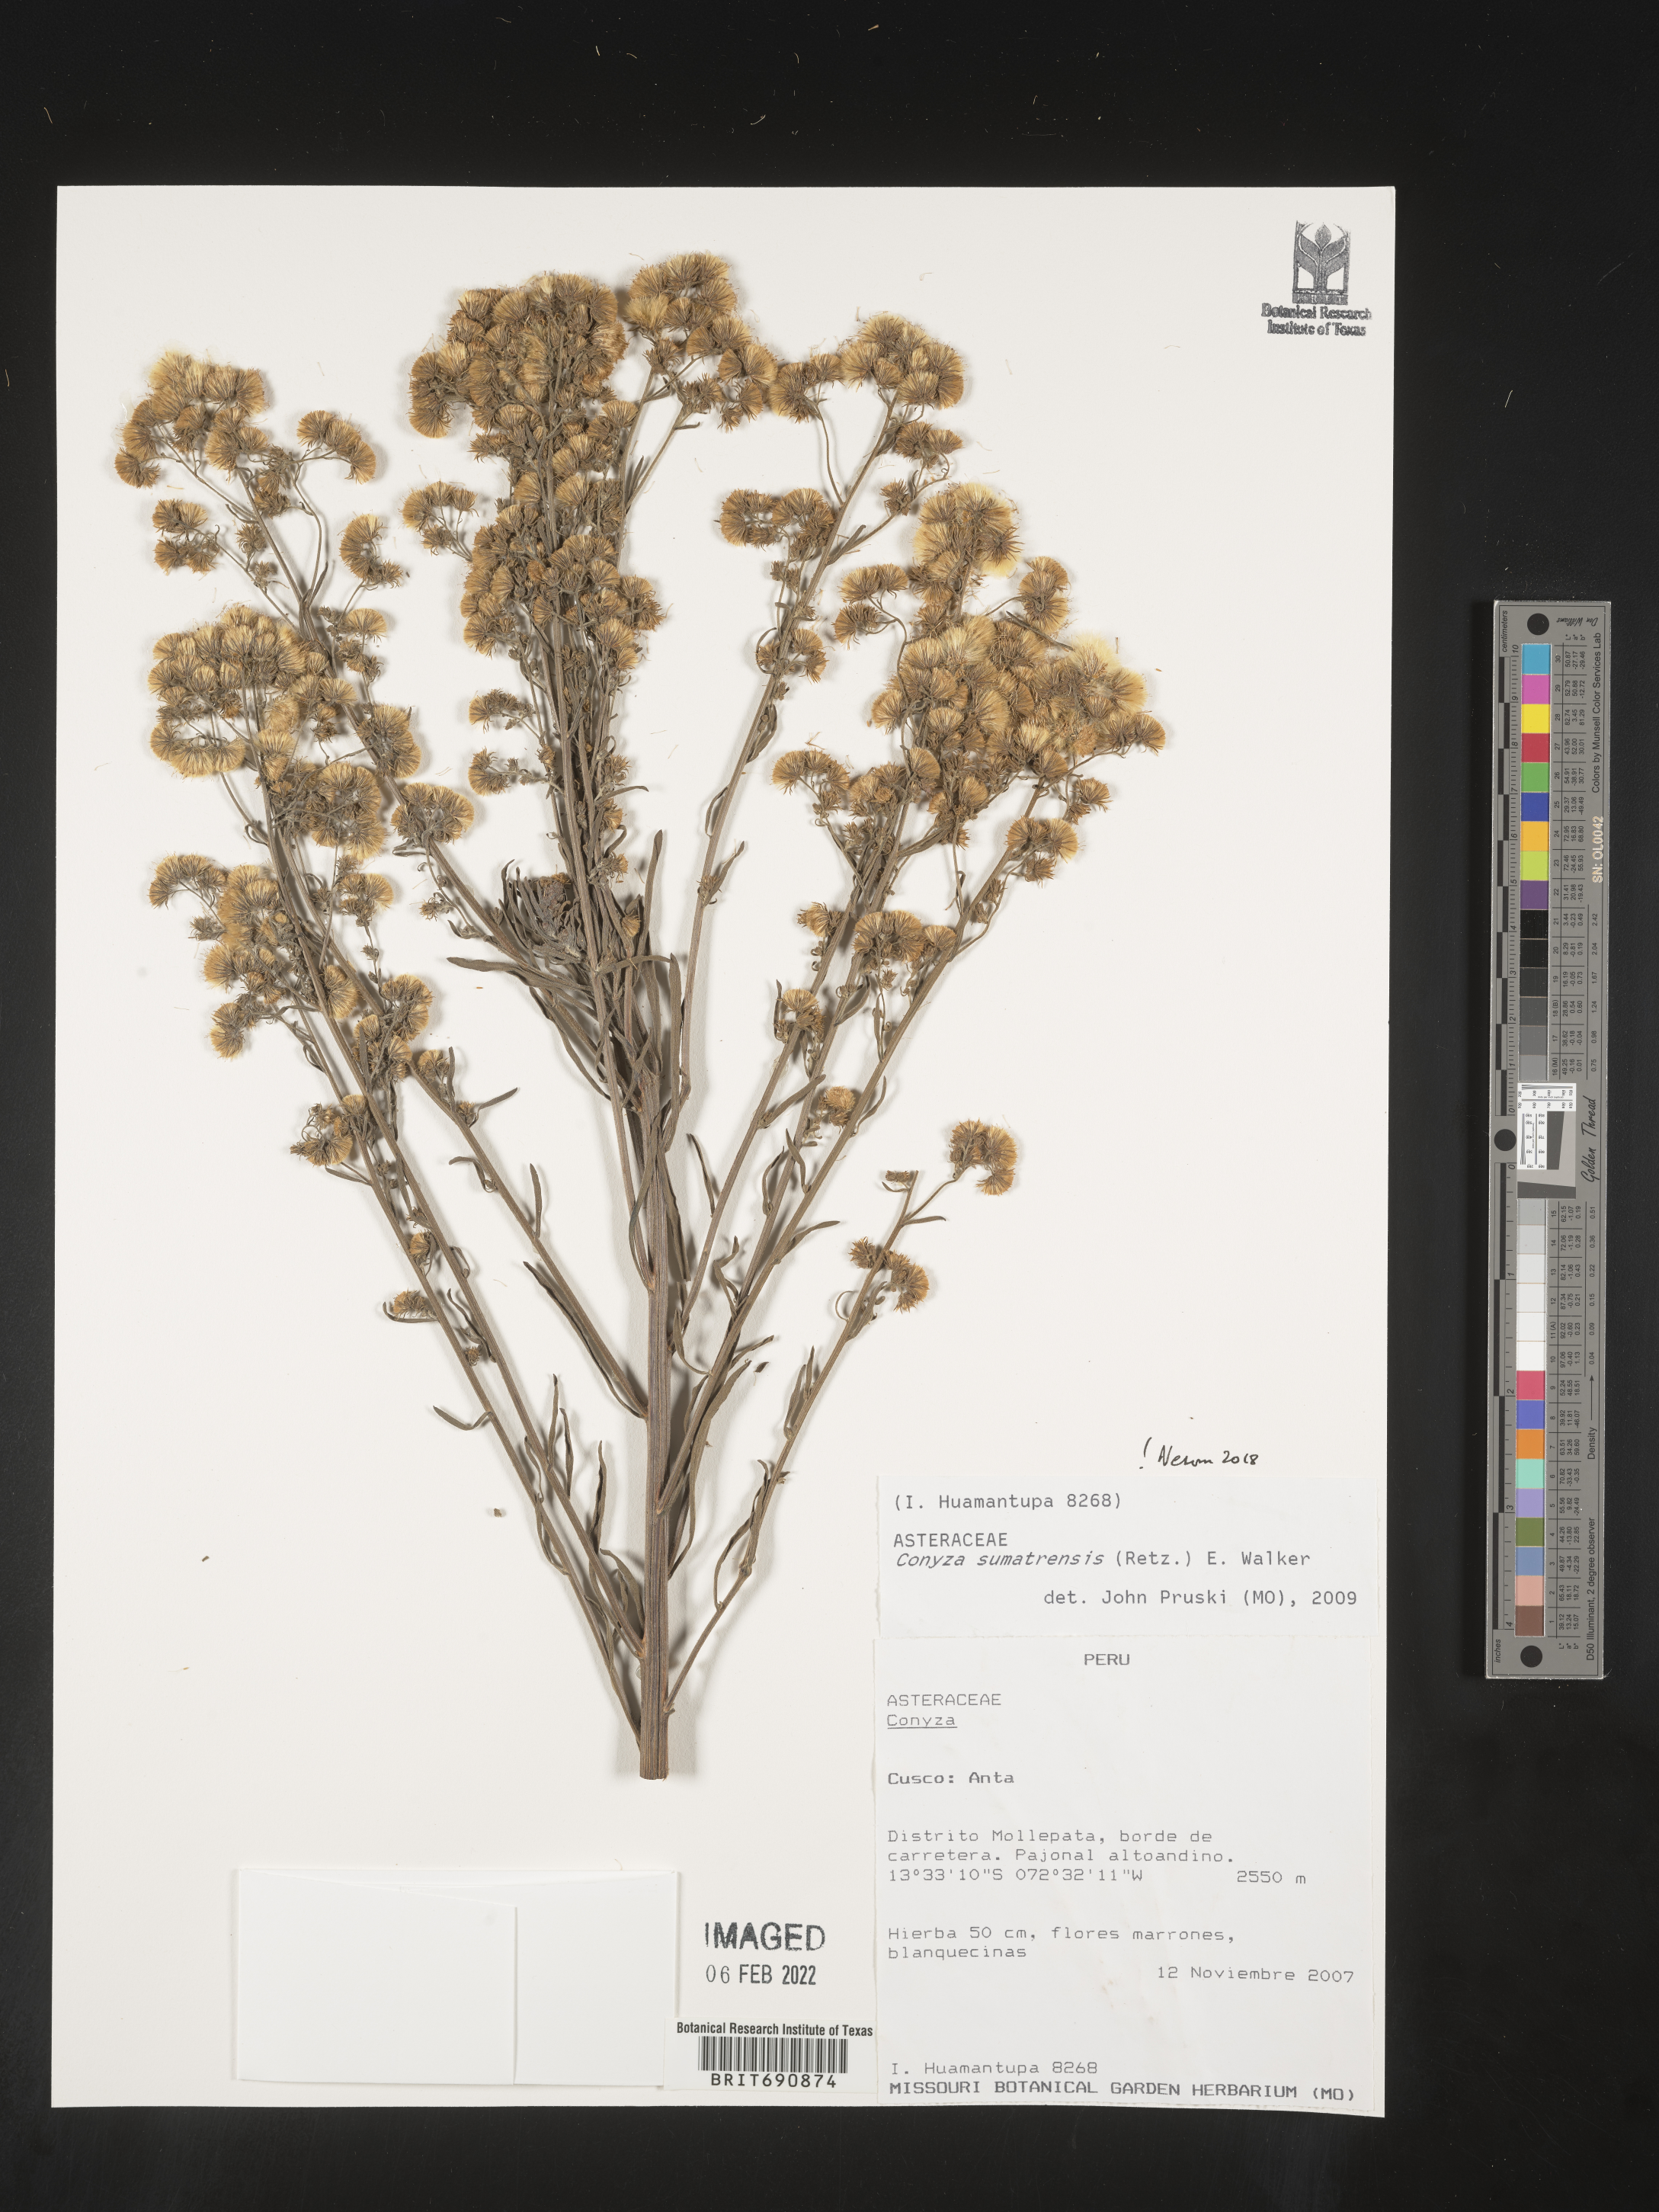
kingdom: Plantae
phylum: Tracheophyta
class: Magnoliopsida
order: Asterales
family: Asteraceae
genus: Conyza
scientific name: Conyza
